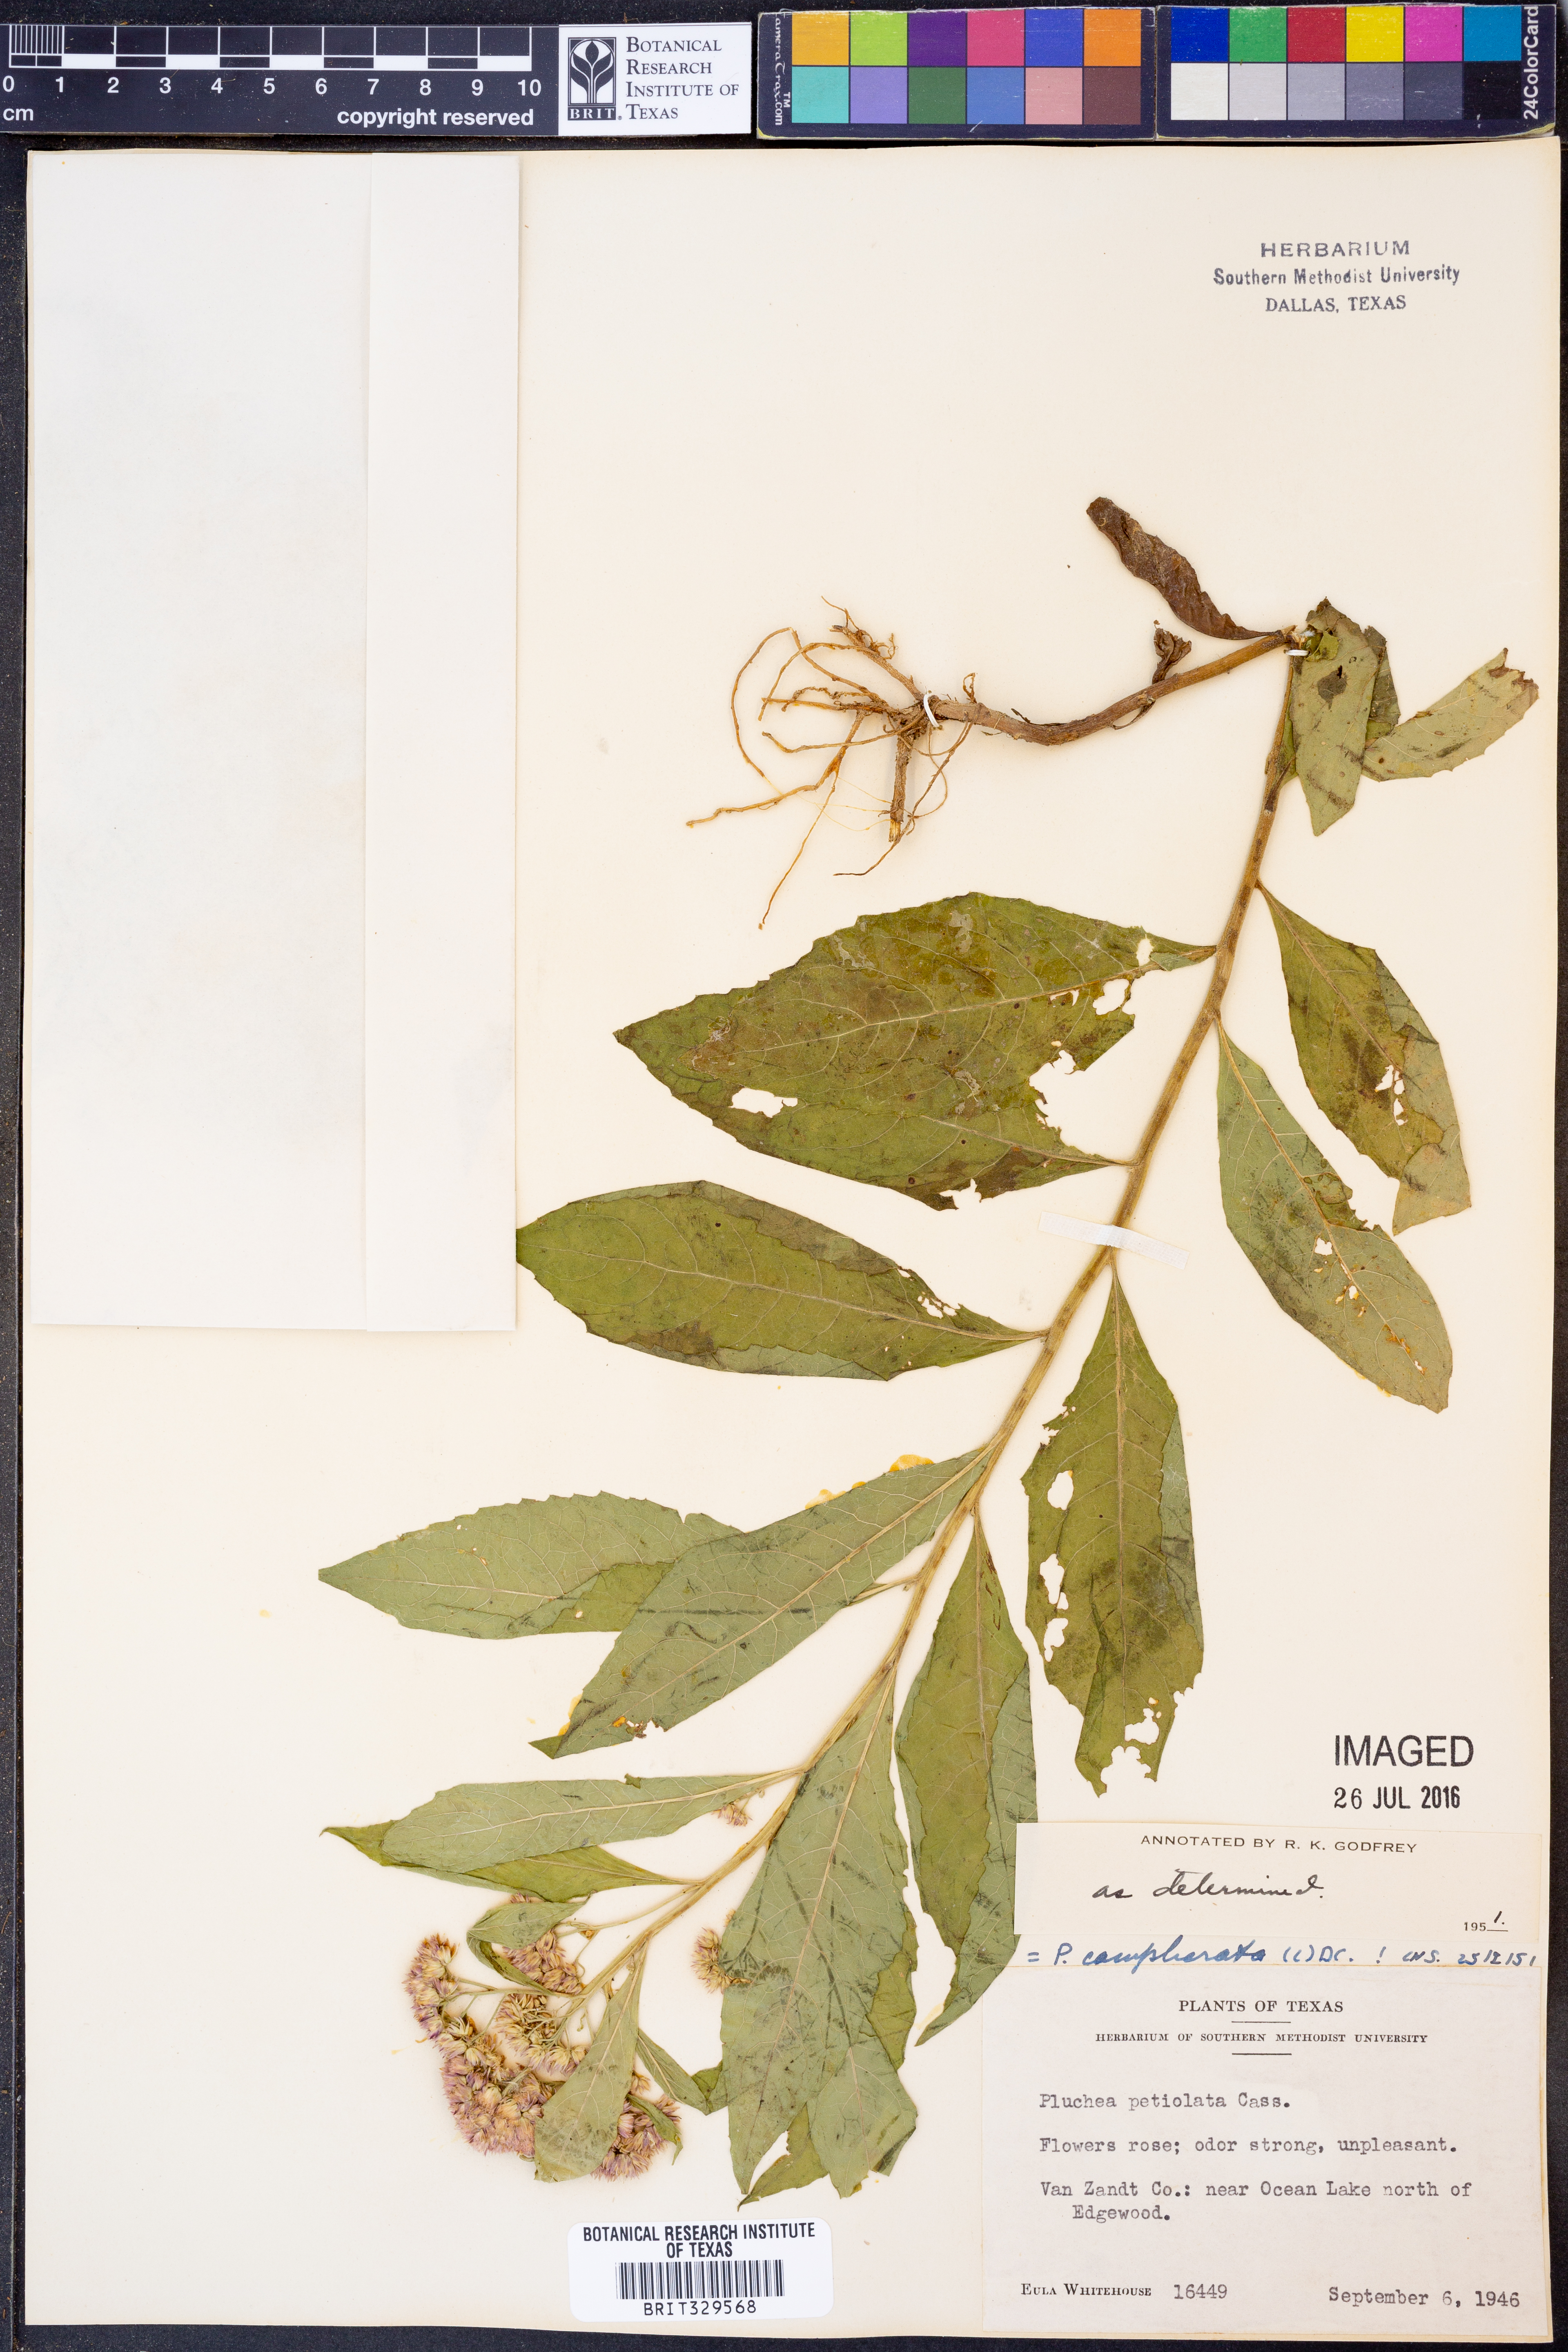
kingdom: Plantae
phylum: Tracheophyta
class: Magnoliopsida
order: Asterales
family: Asteraceae
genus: Pluchea
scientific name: Pluchea camphorata
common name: Camphor pluchea
